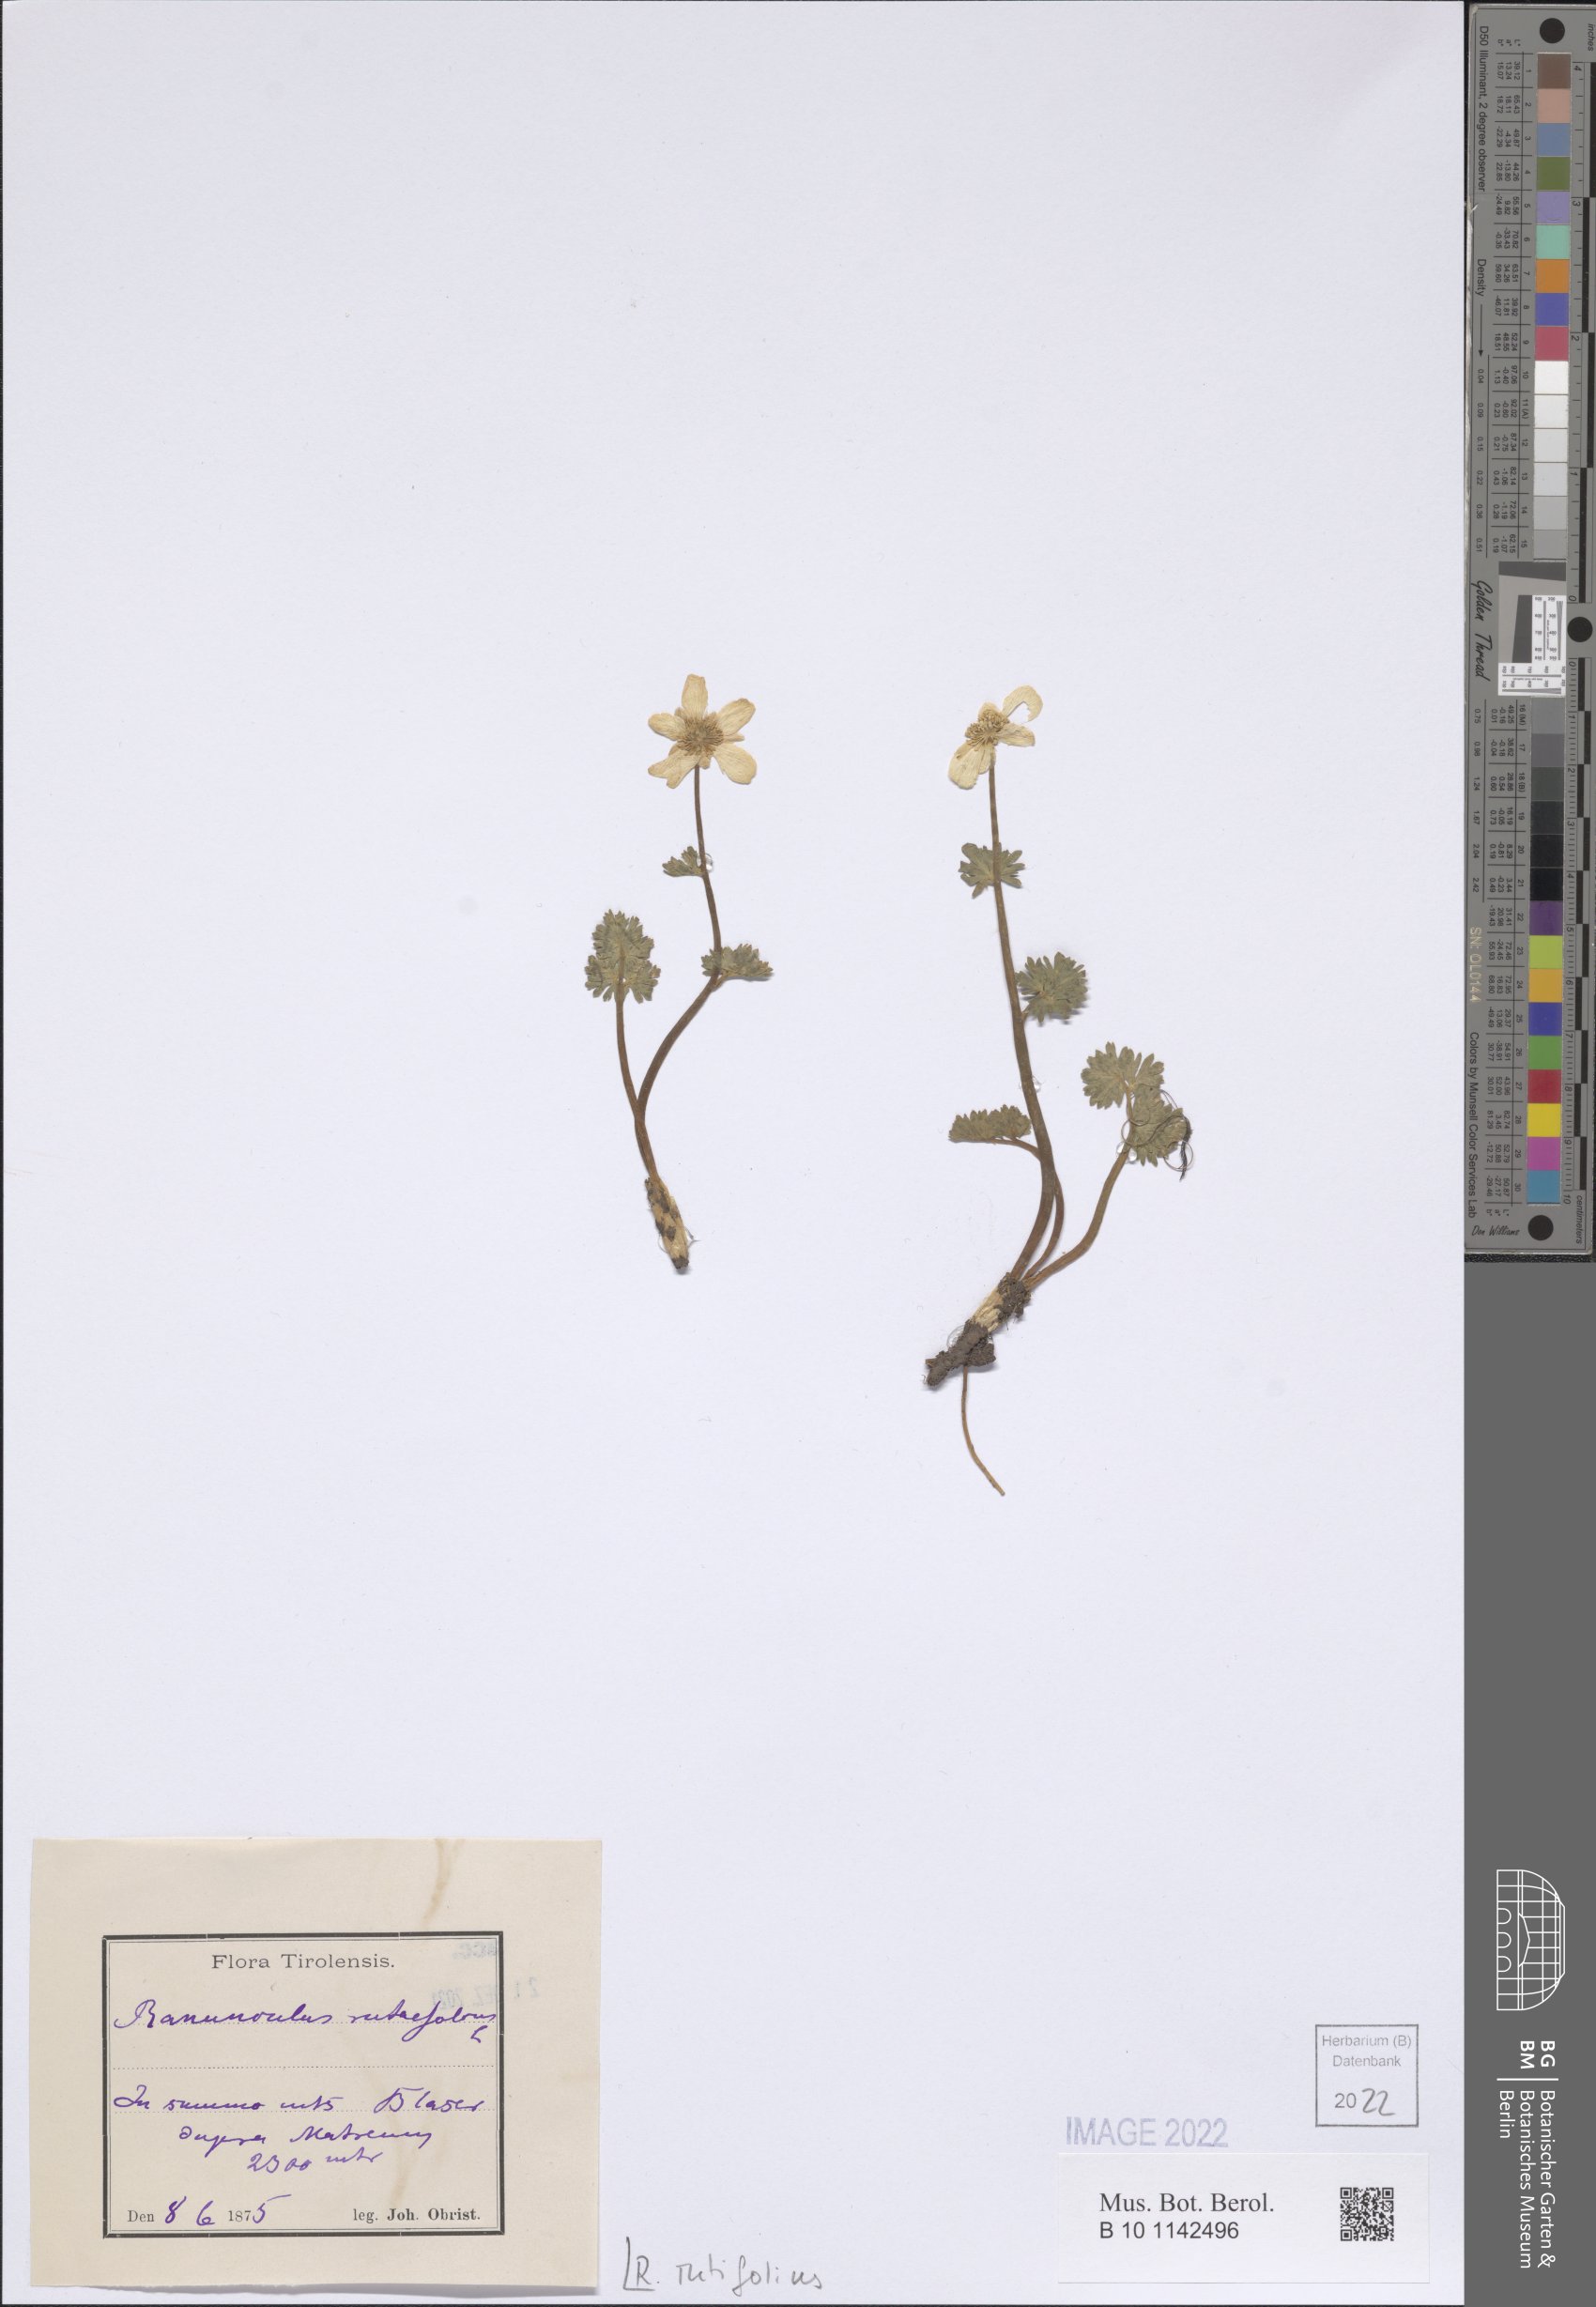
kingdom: Plantae
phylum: Tracheophyta
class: Magnoliopsida
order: Ranunculales
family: Ranunculaceae
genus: Callianthemum
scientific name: Callianthemum anemonoides
